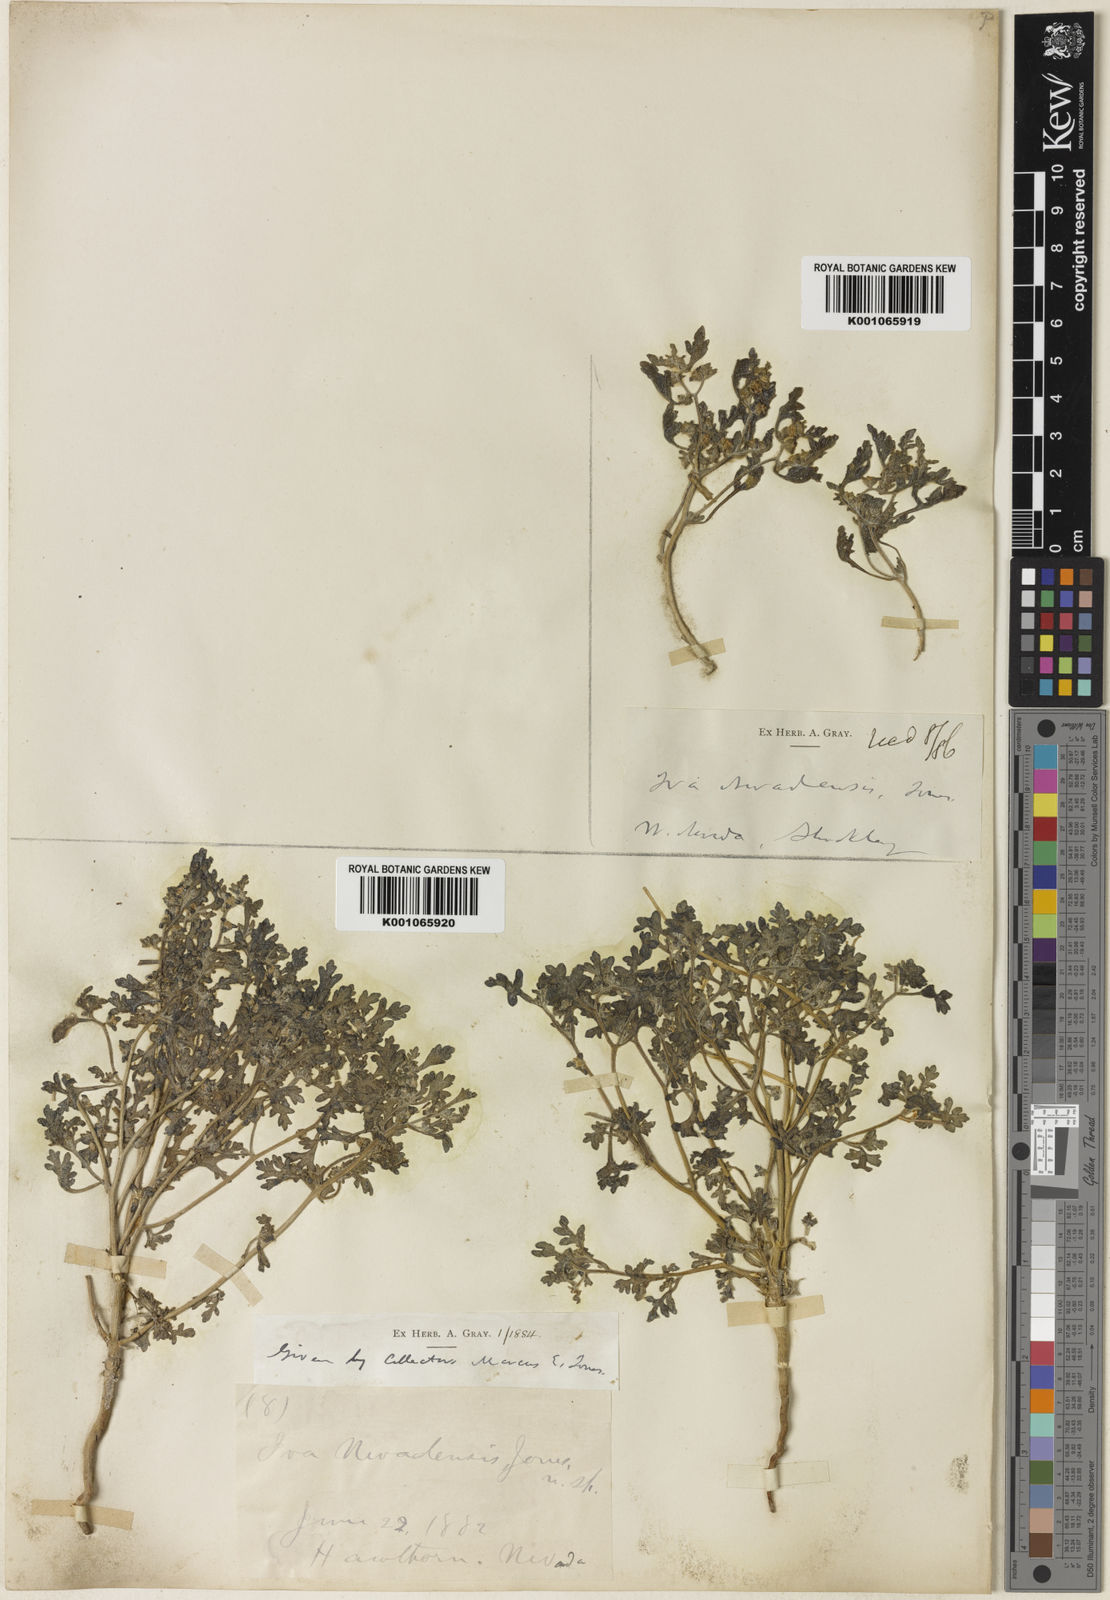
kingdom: Plantae
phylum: Tracheophyta
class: Magnoliopsida
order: Asterales
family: Asteraceae
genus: Euphrosyne
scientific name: Euphrosyne nevadensis
